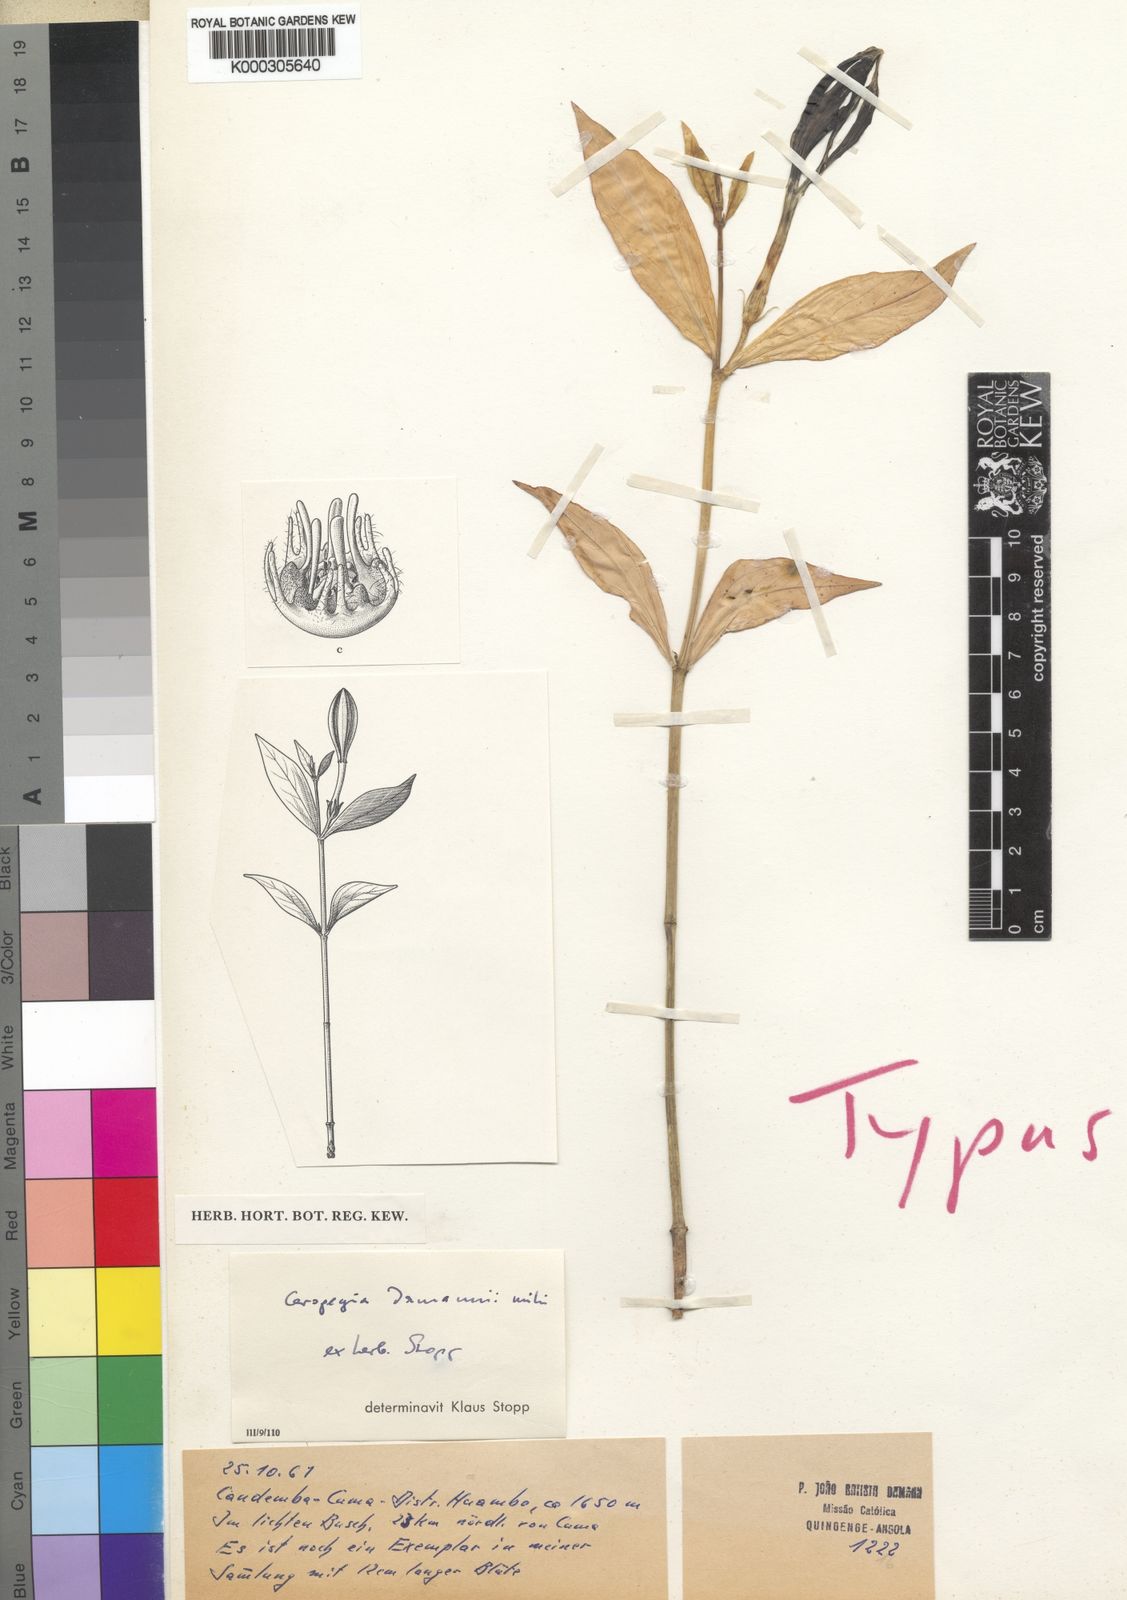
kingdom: Plantae
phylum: Tracheophyta
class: Magnoliopsida
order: Gentianales
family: Apocynaceae
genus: Ceropegia
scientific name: Ceropegia damannii
